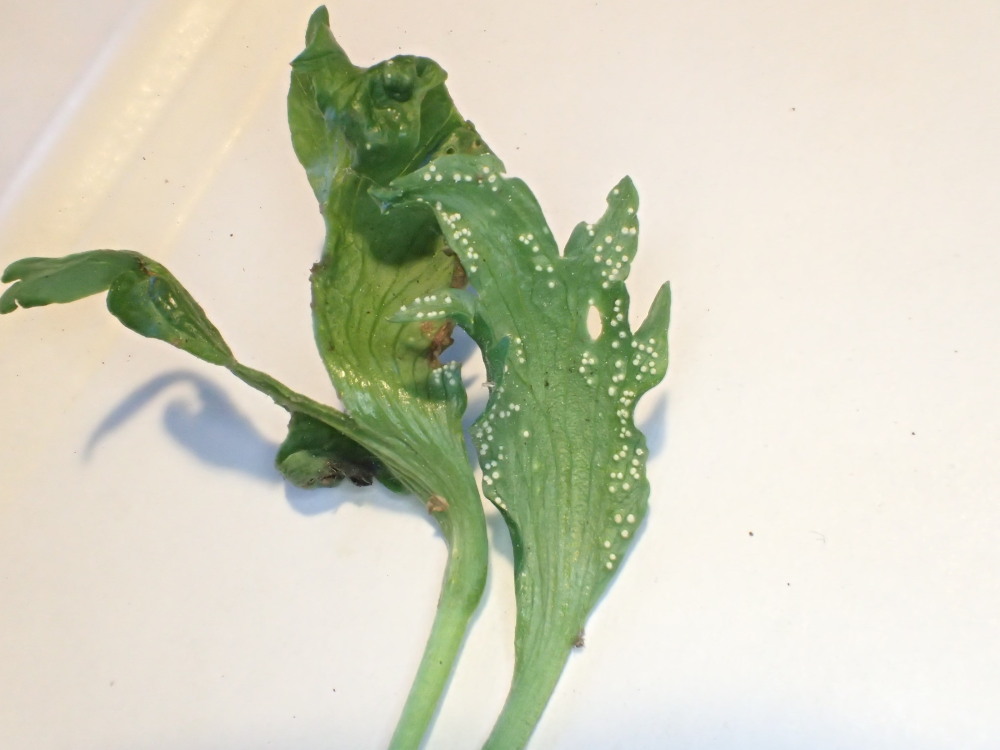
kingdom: Fungi
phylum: Basidiomycota
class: Pucciniomycetes
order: Pucciniales
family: Ochropsoraceae
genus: Ochropsora
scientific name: Ochropsora ariae
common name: anemone-okkerpletrust
